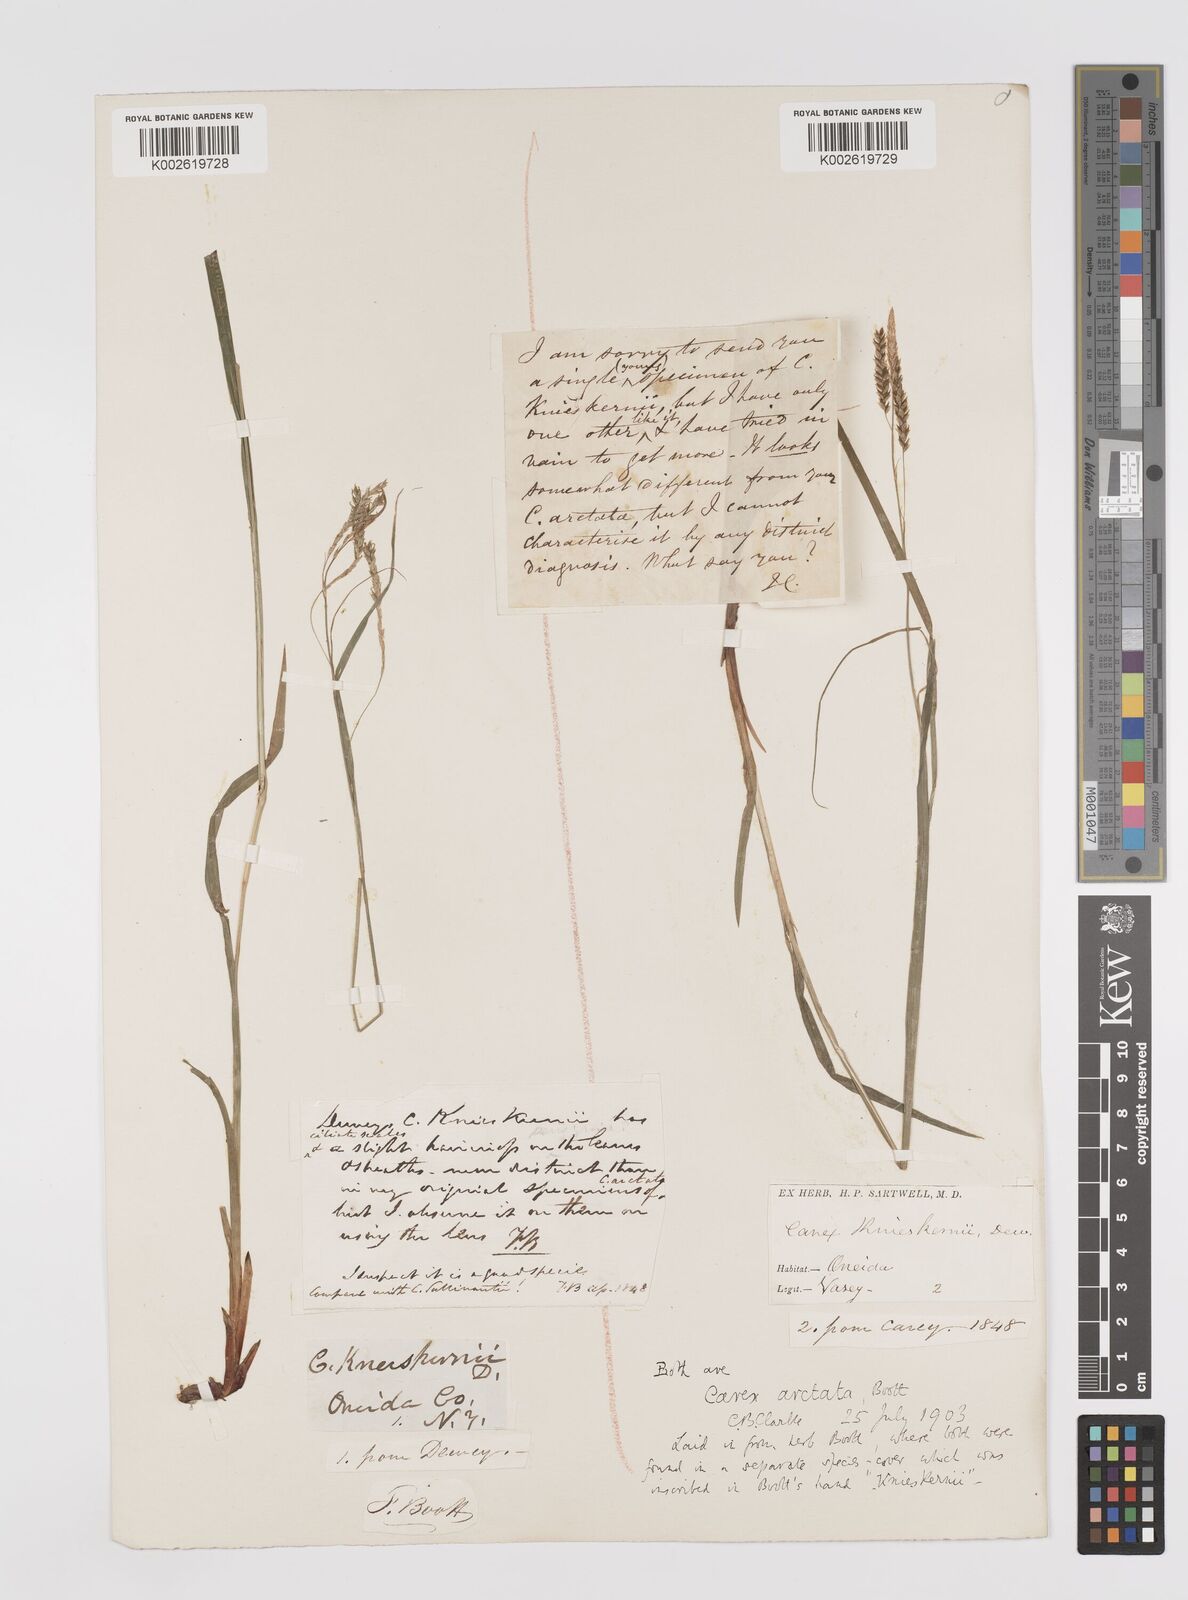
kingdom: Plantae
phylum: Tracheophyta
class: Liliopsida
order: Poales
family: Cyperaceae
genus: Carex
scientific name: Carex knieskernii
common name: Knieskern's sedge
